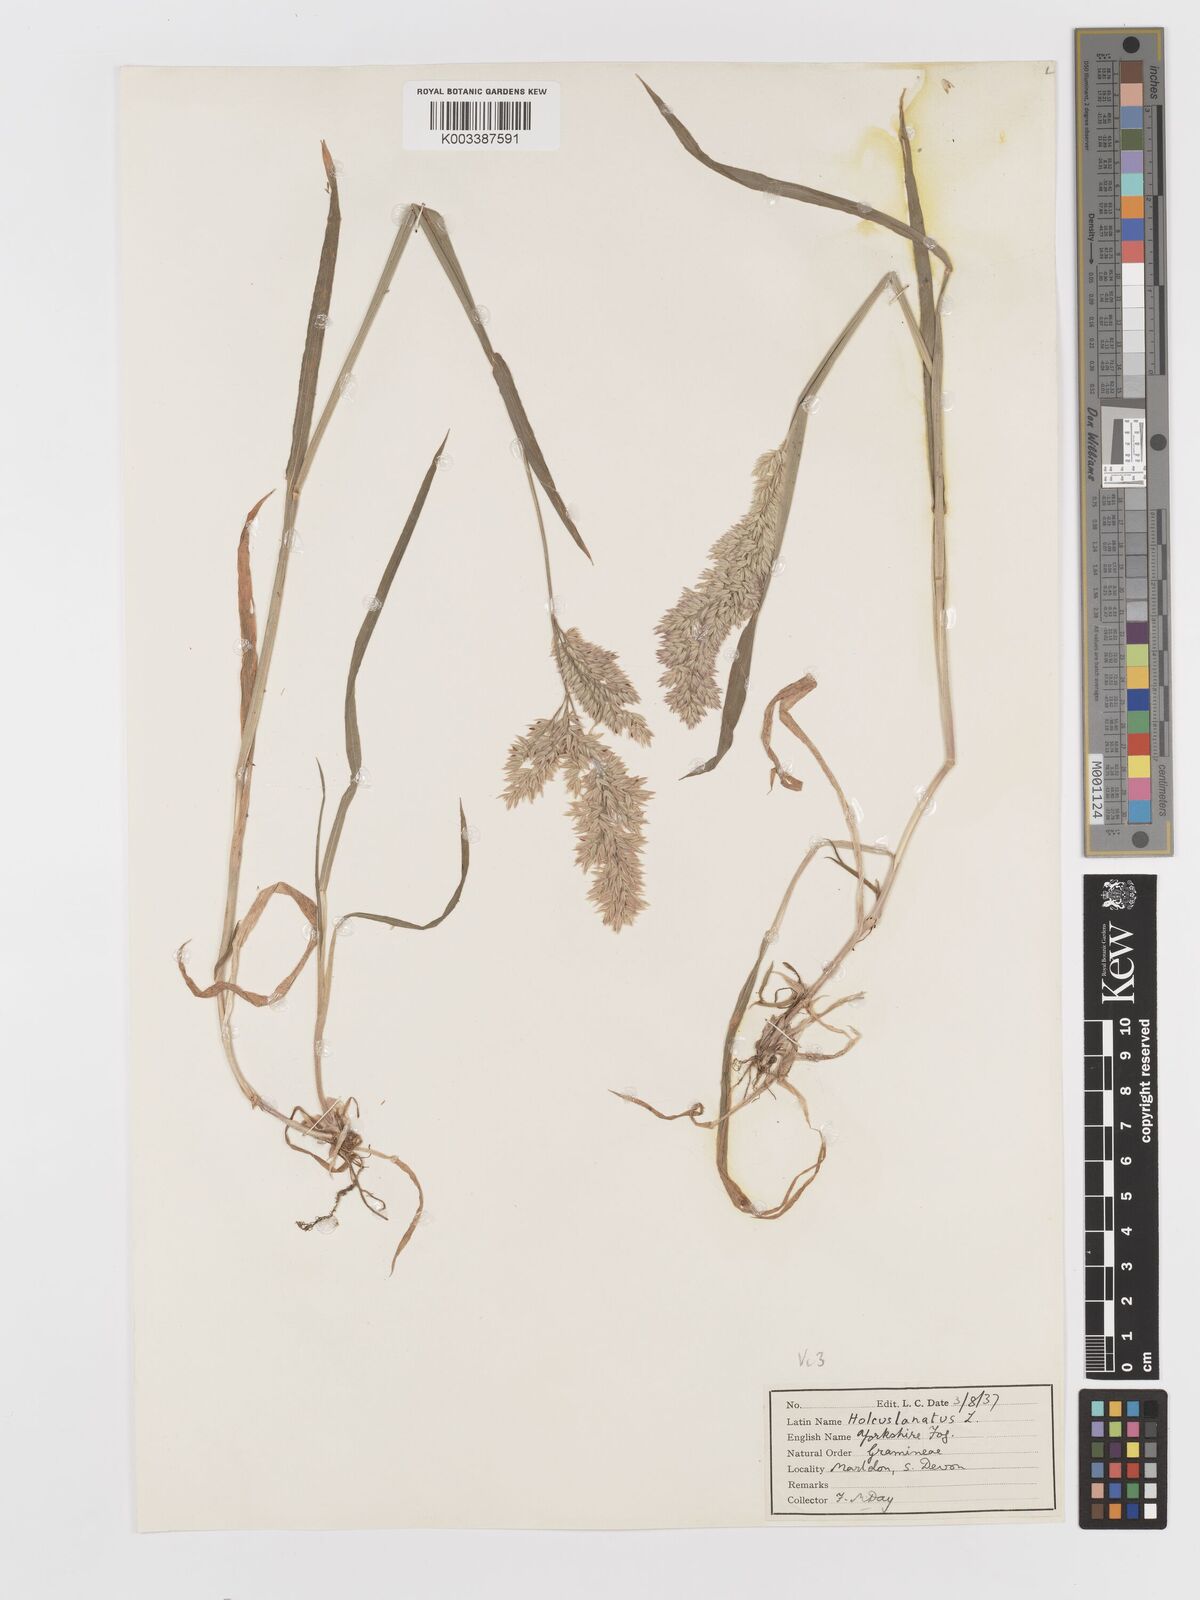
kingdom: Plantae
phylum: Tracheophyta
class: Liliopsida
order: Poales
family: Poaceae
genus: Holcus
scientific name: Holcus lanatus
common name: Yorkshire-fog
